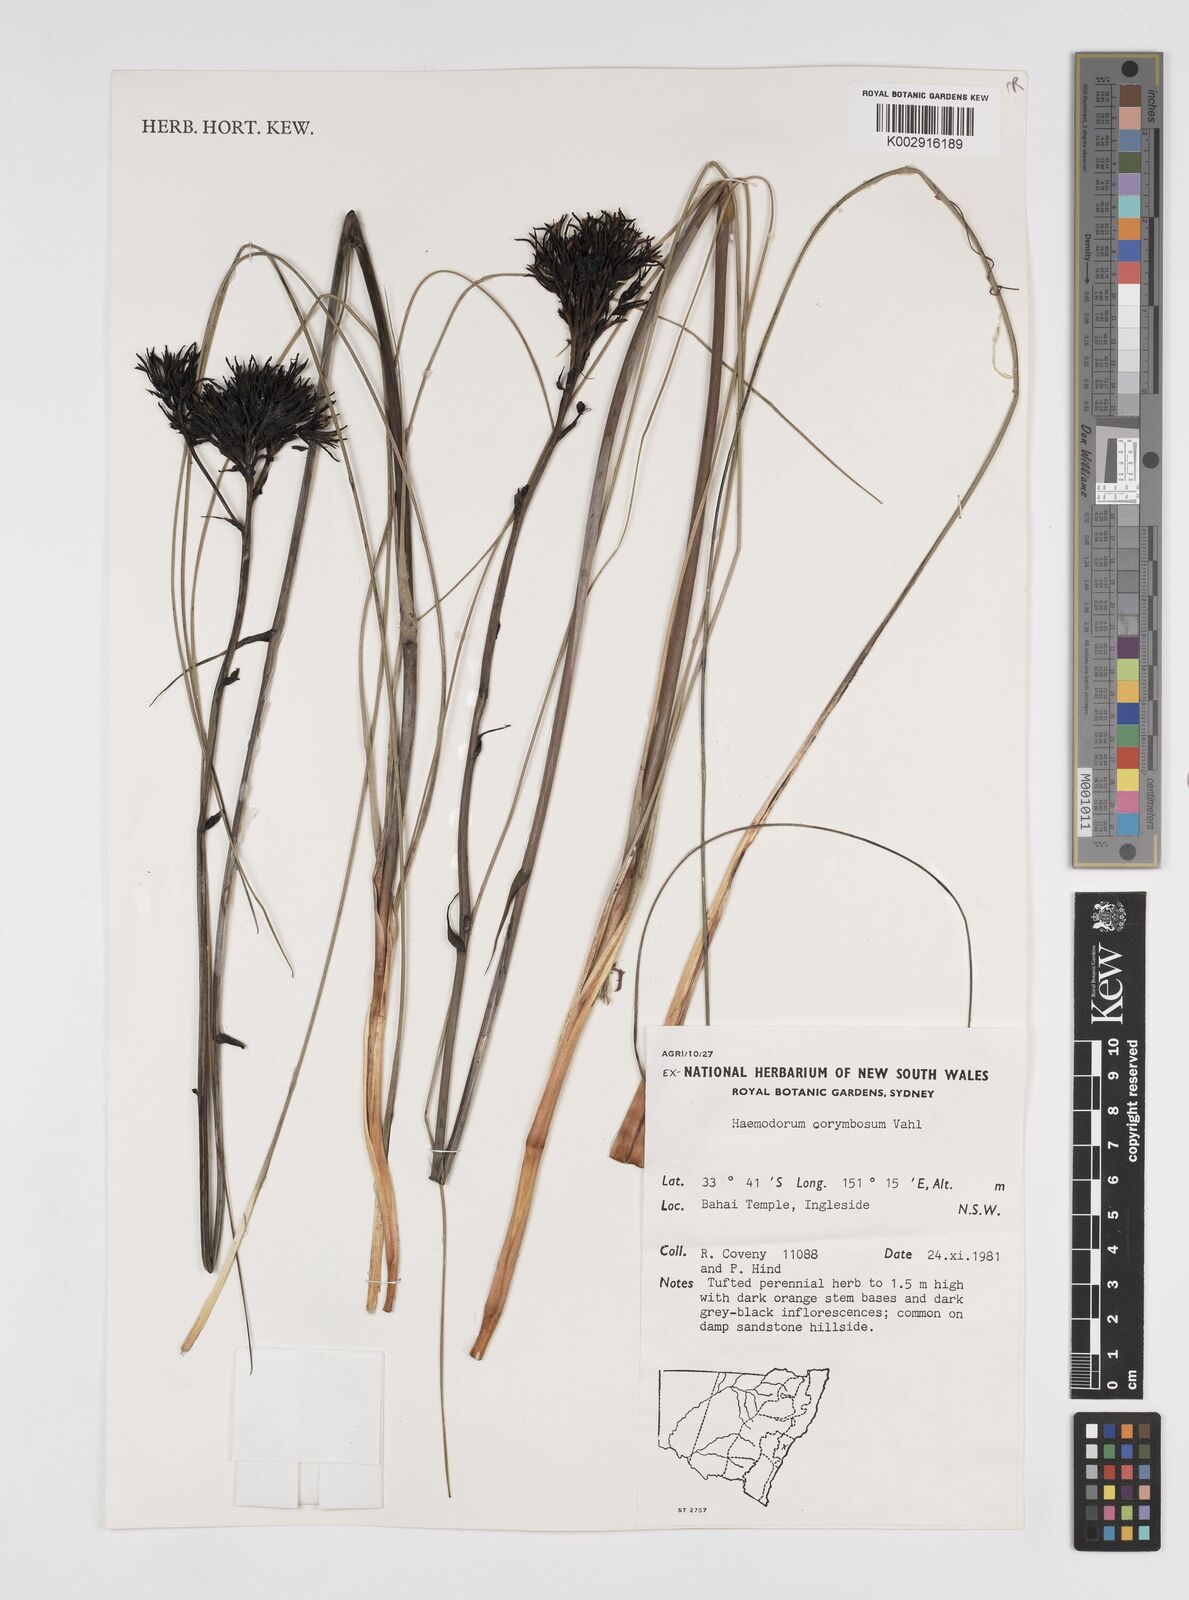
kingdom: Plantae
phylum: Tracheophyta
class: Liliopsida
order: Commelinales
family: Haemodoraceae
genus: Haemodorum
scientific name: Haemodorum corymbosum
